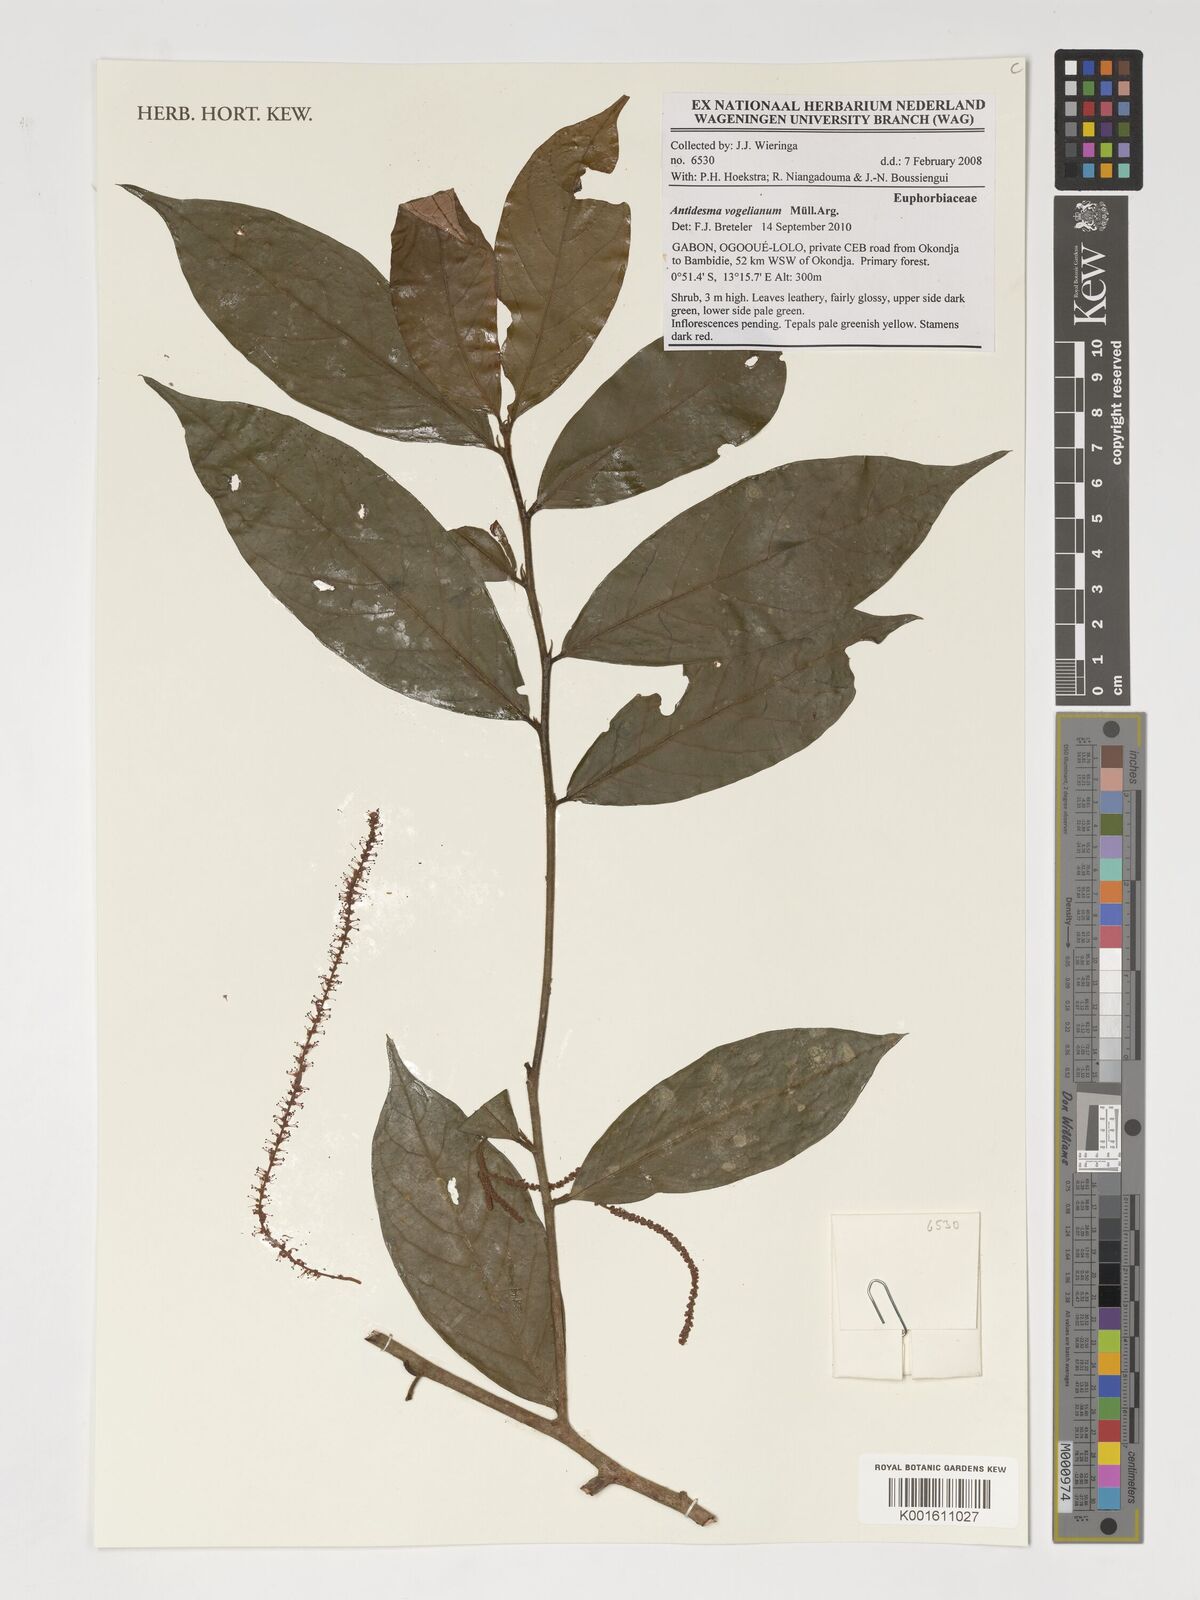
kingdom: Plantae
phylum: Tracheophyta
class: Magnoliopsida
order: Malpighiales
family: Phyllanthaceae
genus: Antidesma
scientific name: Antidesma vogelianum
